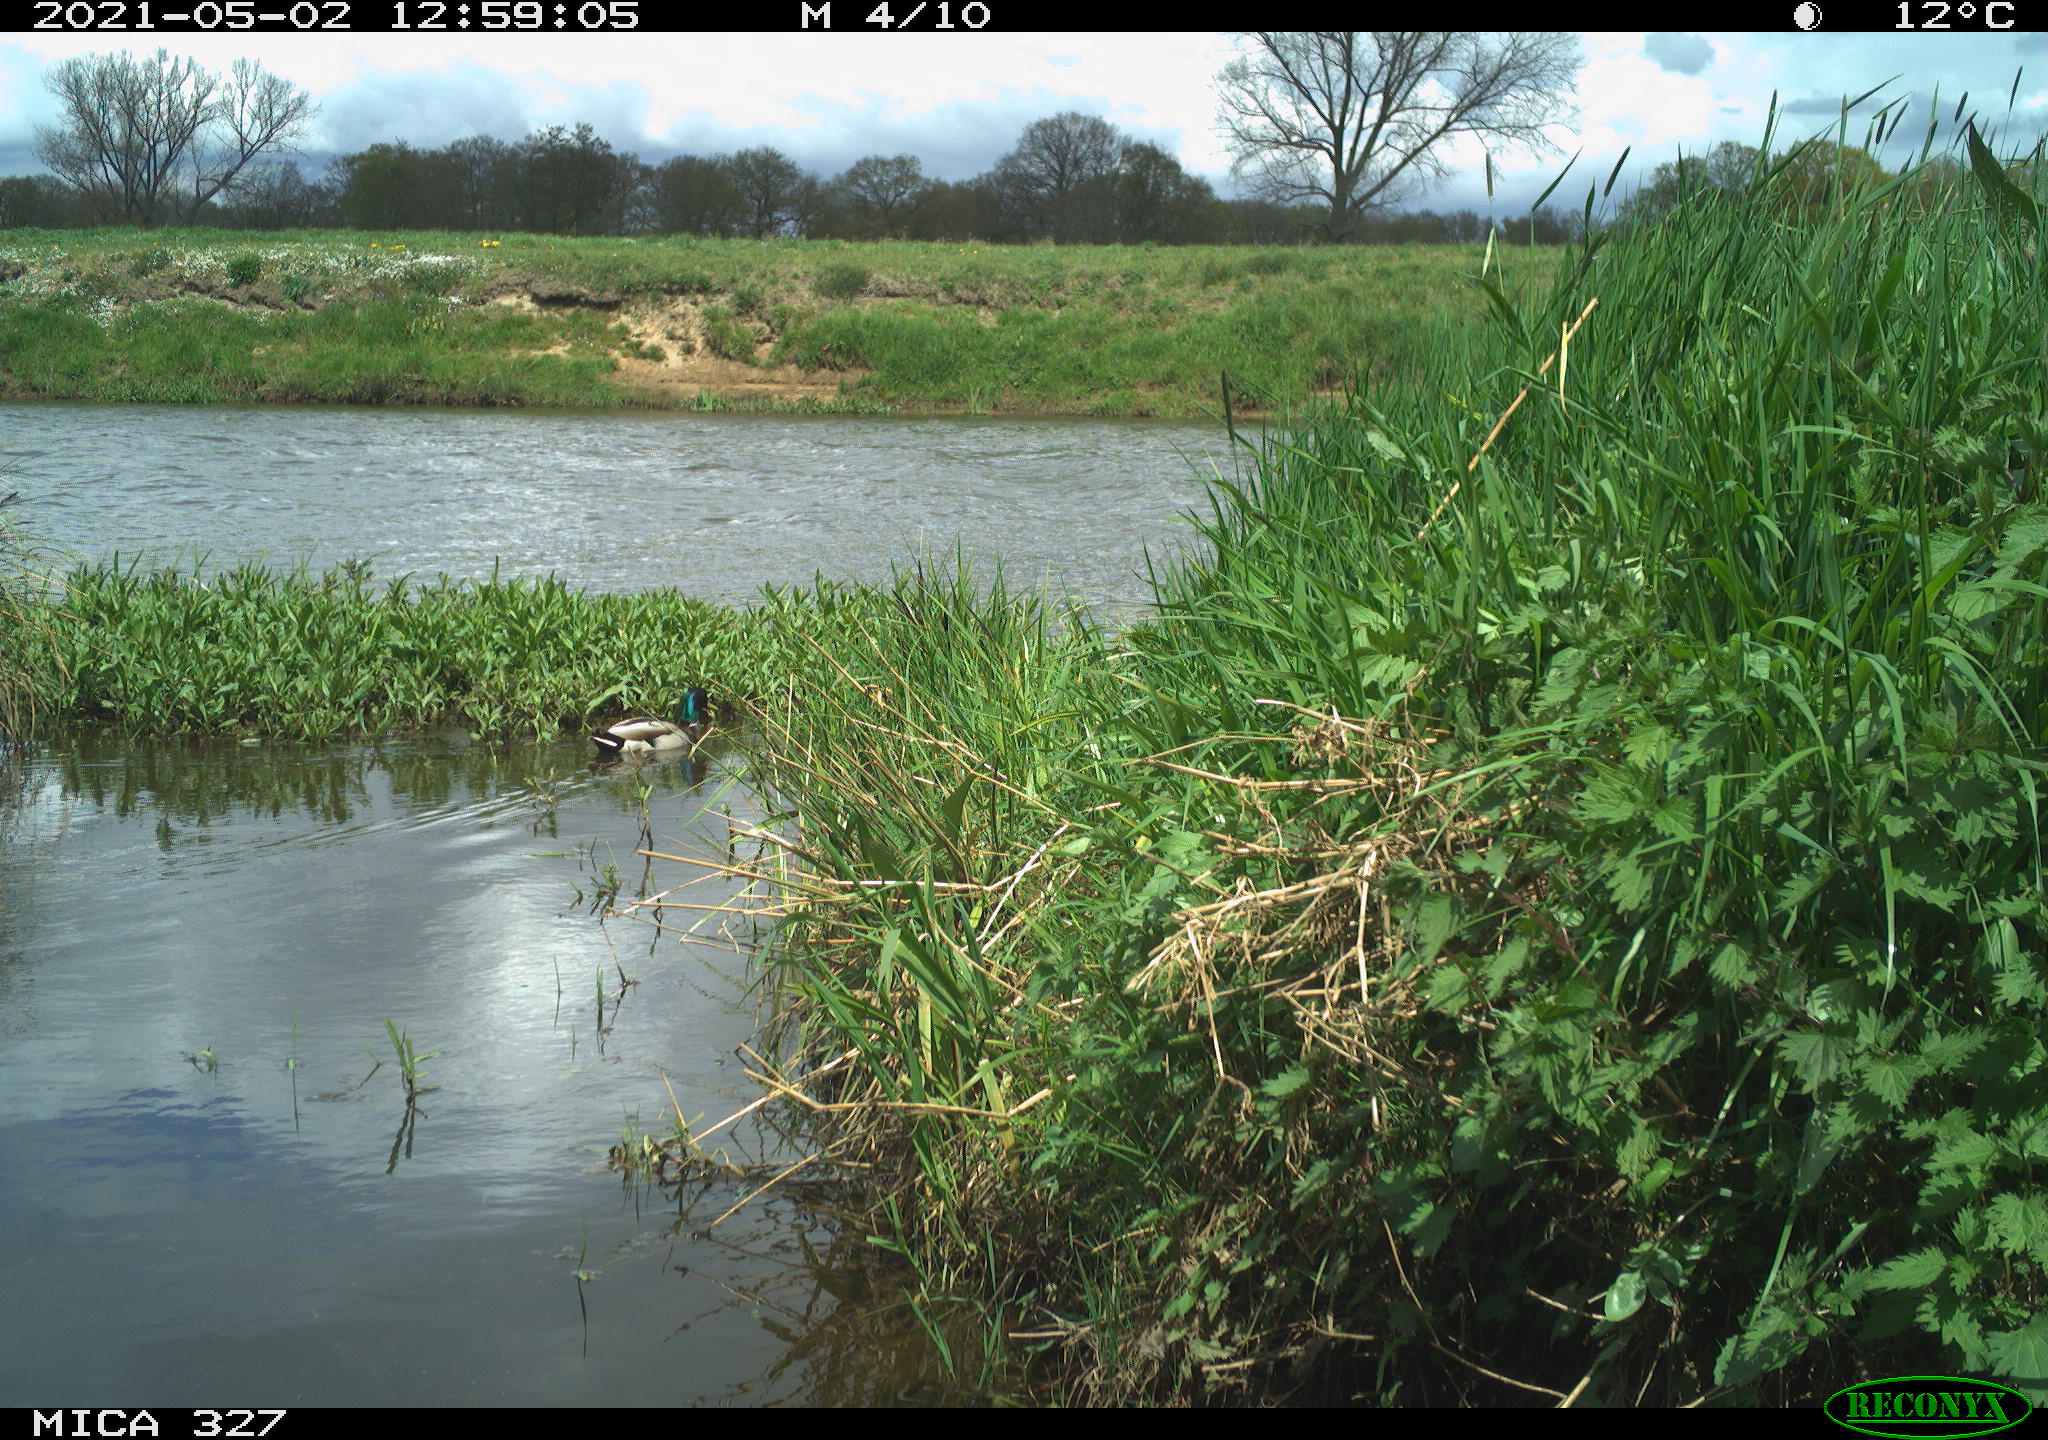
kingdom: Animalia
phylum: Chordata
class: Aves
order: Anseriformes
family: Anatidae
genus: Anas
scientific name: Anas platyrhynchos
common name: Mallard
